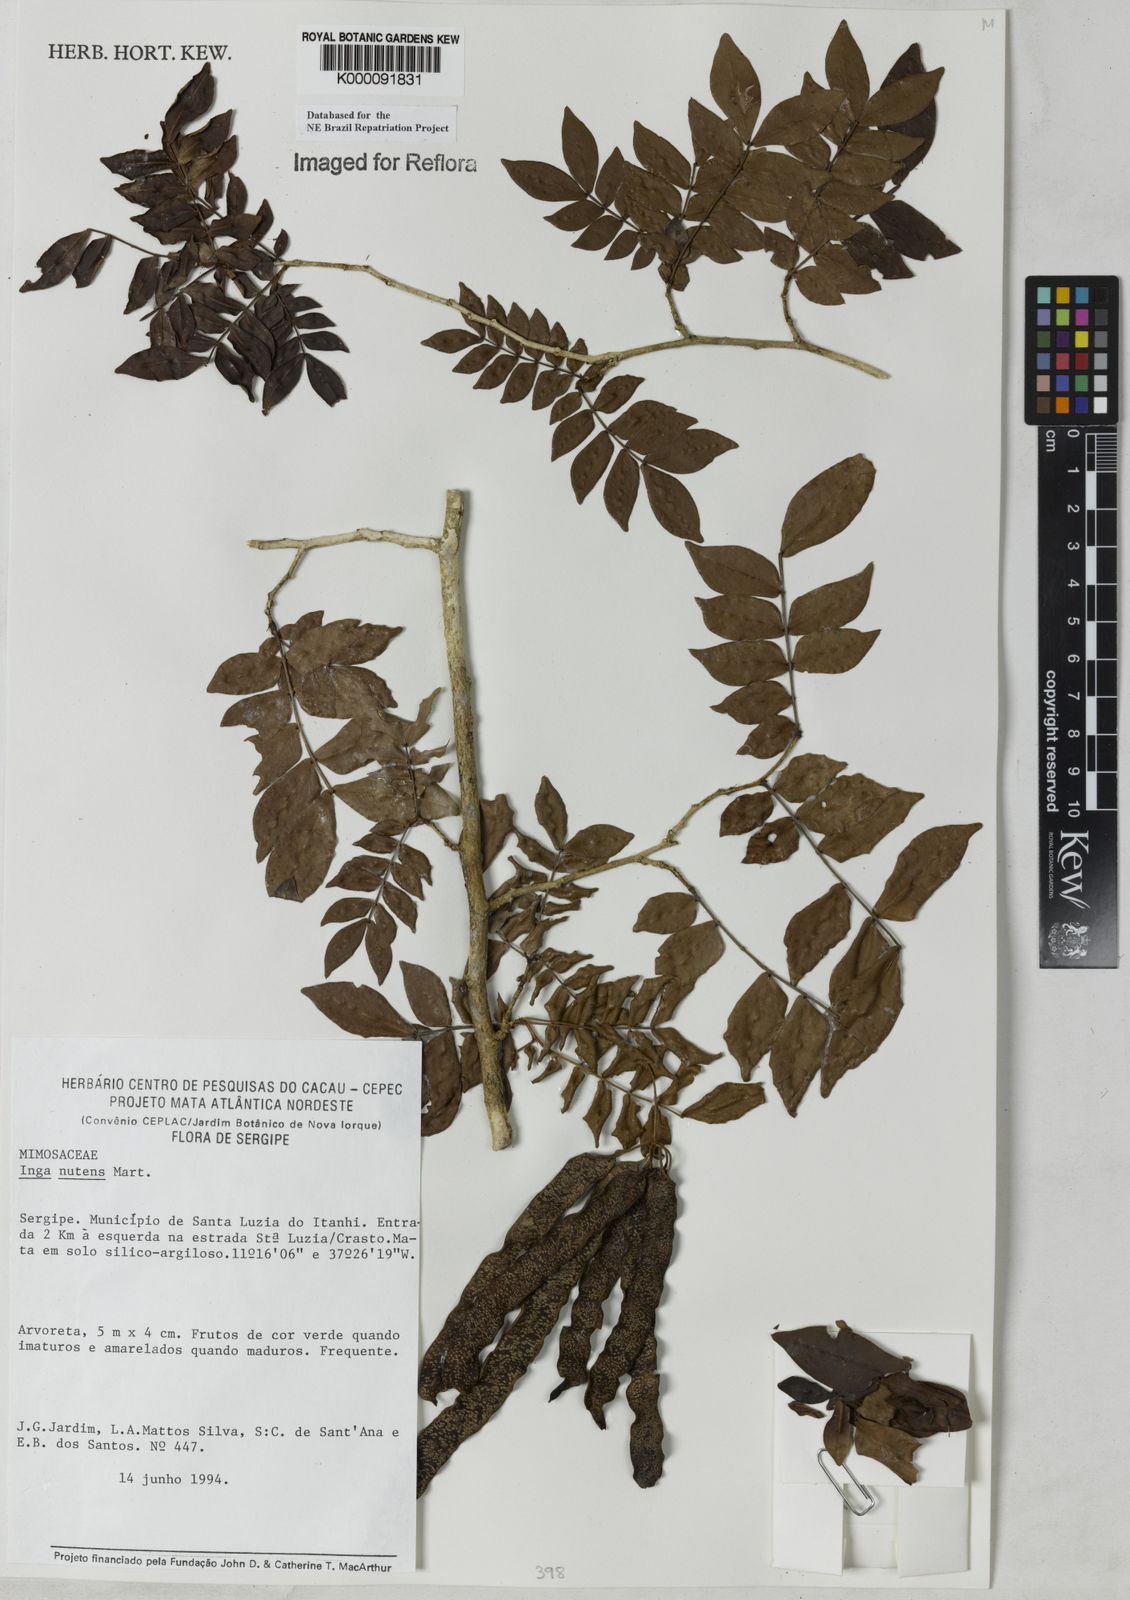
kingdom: Plantae
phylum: Tracheophyta
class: Magnoliopsida
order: Fabales
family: Fabaceae
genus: Inga
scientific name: Inga tenuis
